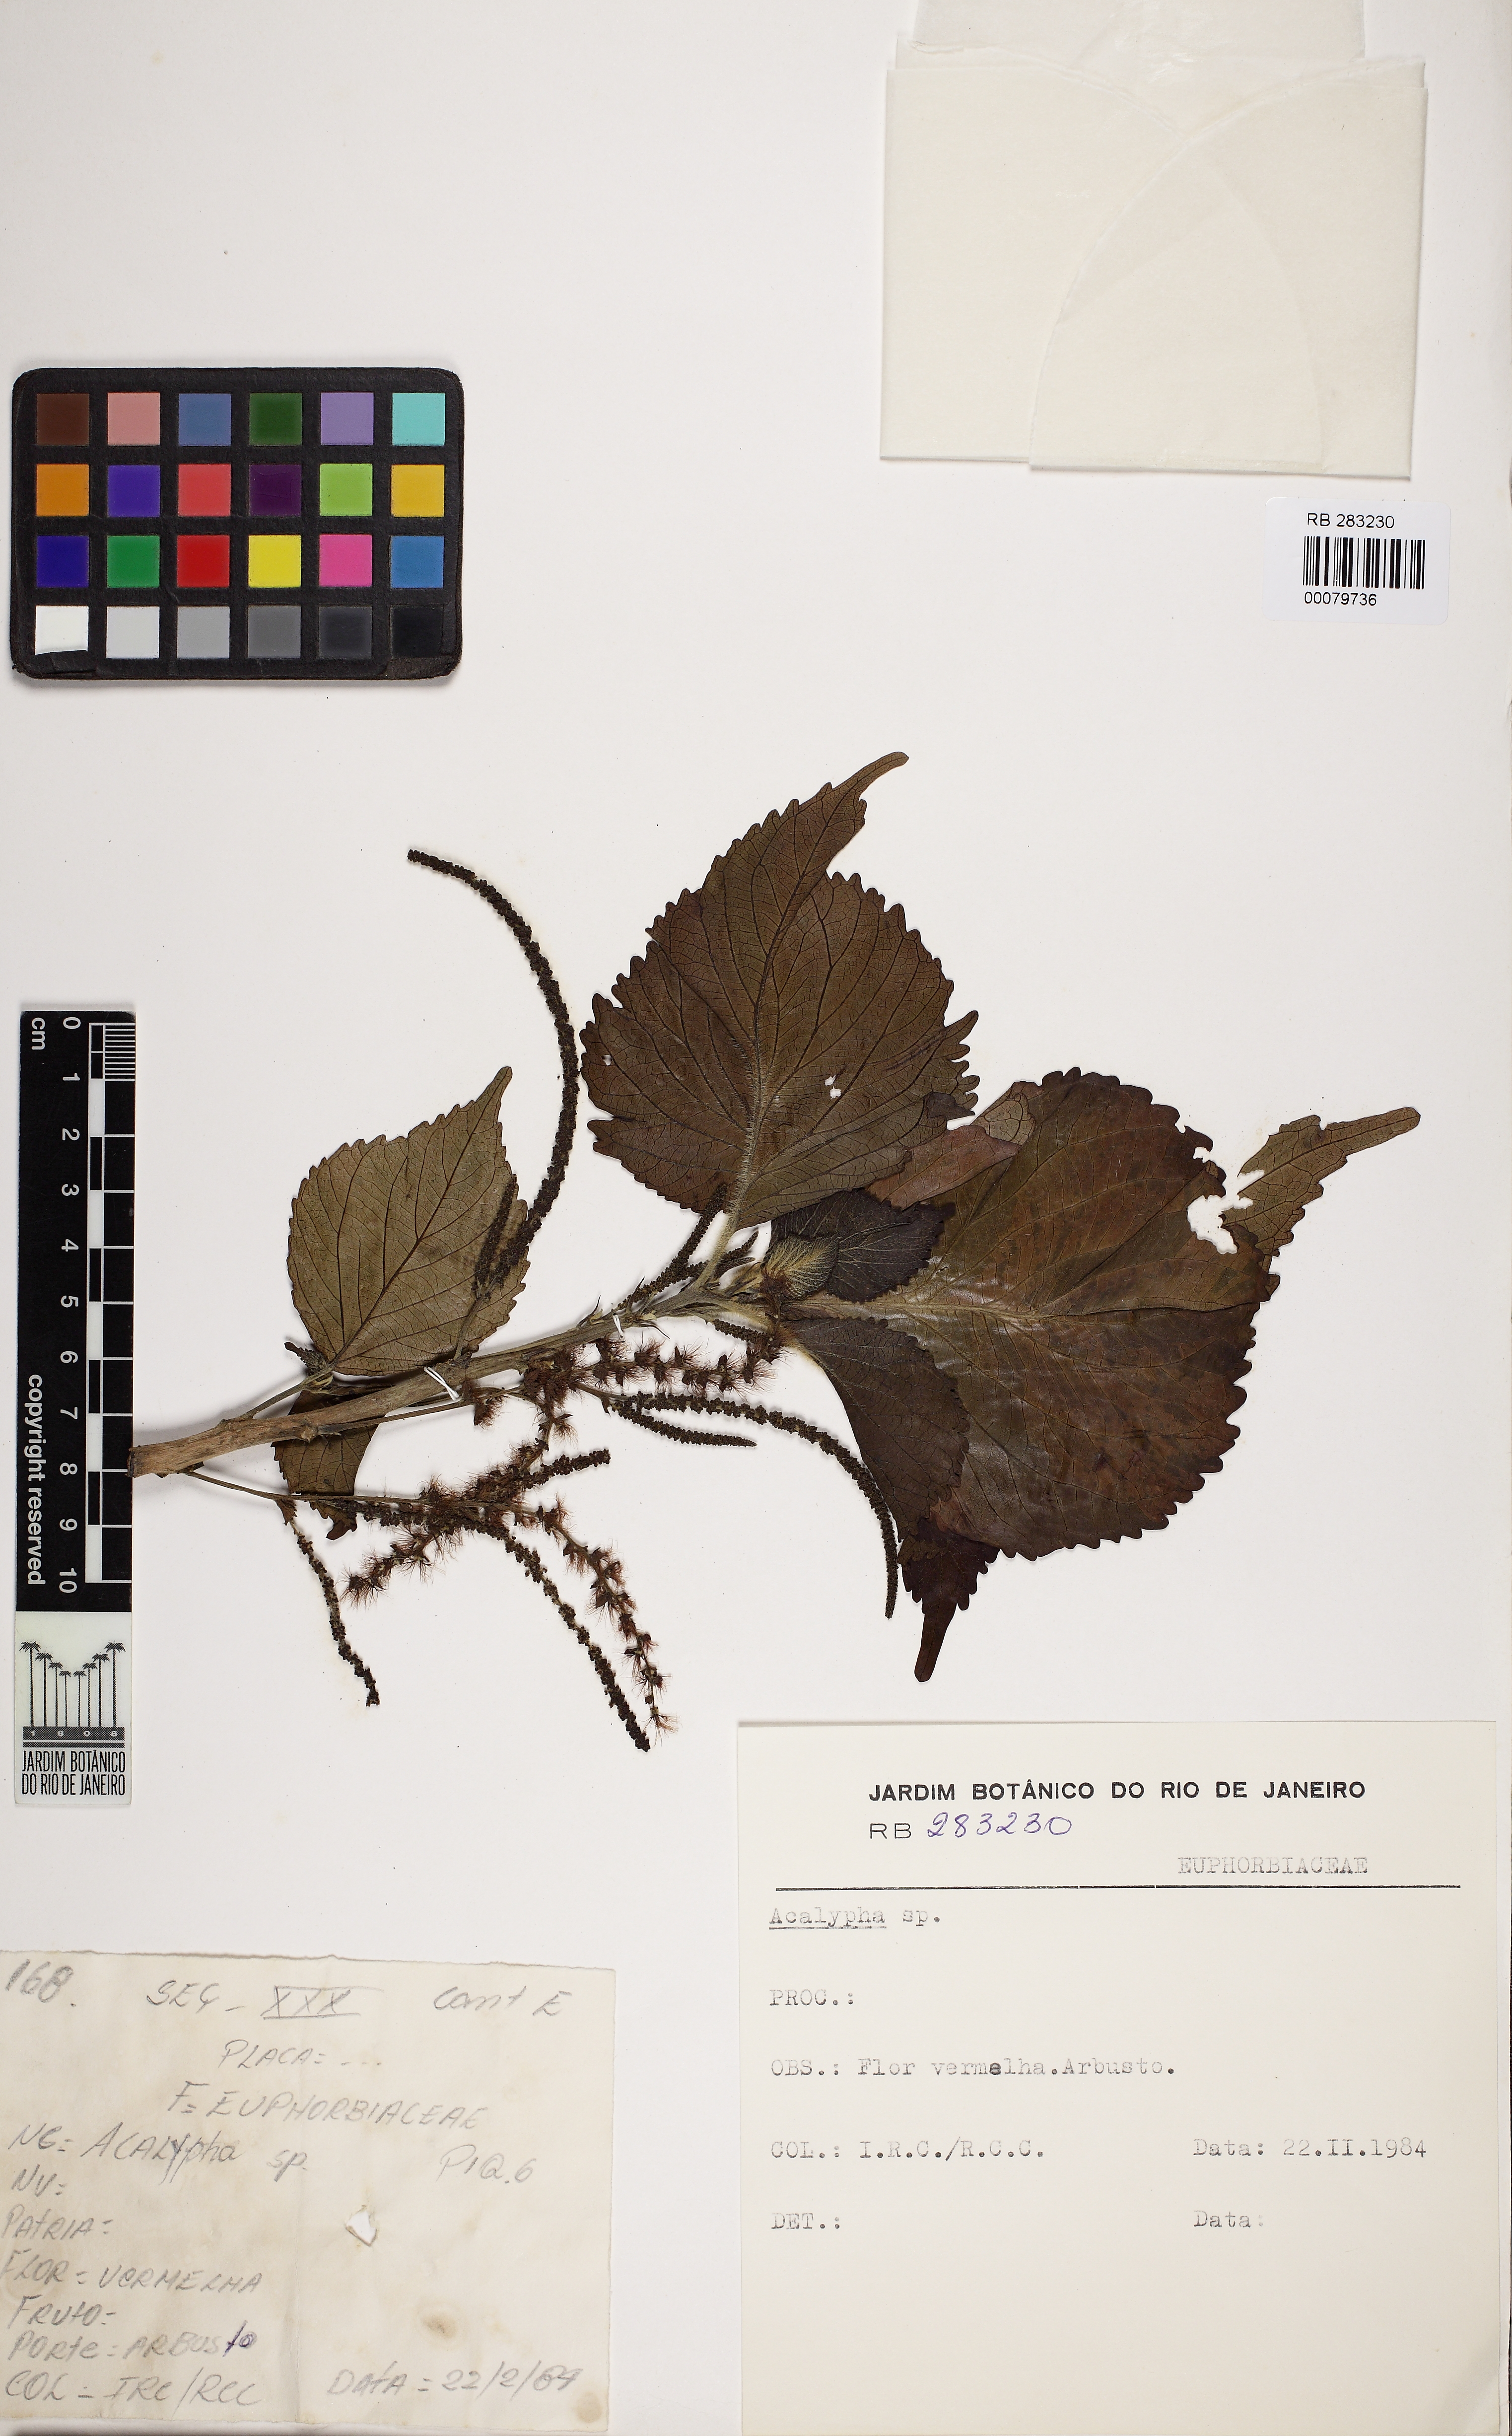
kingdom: Plantae
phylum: Tracheophyta
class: Magnoliopsida
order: Malpighiales
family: Euphorbiaceae
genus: Acalypha
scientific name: Acalypha wilkesiana
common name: Jacob's coat
